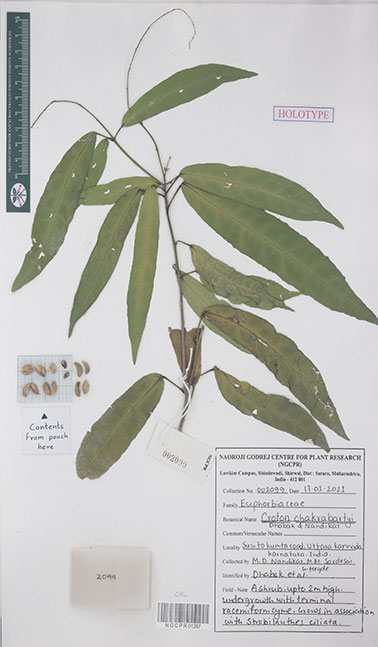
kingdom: Plantae
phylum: Tracheophyta
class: Magnoliopsida
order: Malpighiales
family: Euphorbiaceae
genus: Croton
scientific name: Croton chakrabartyi
